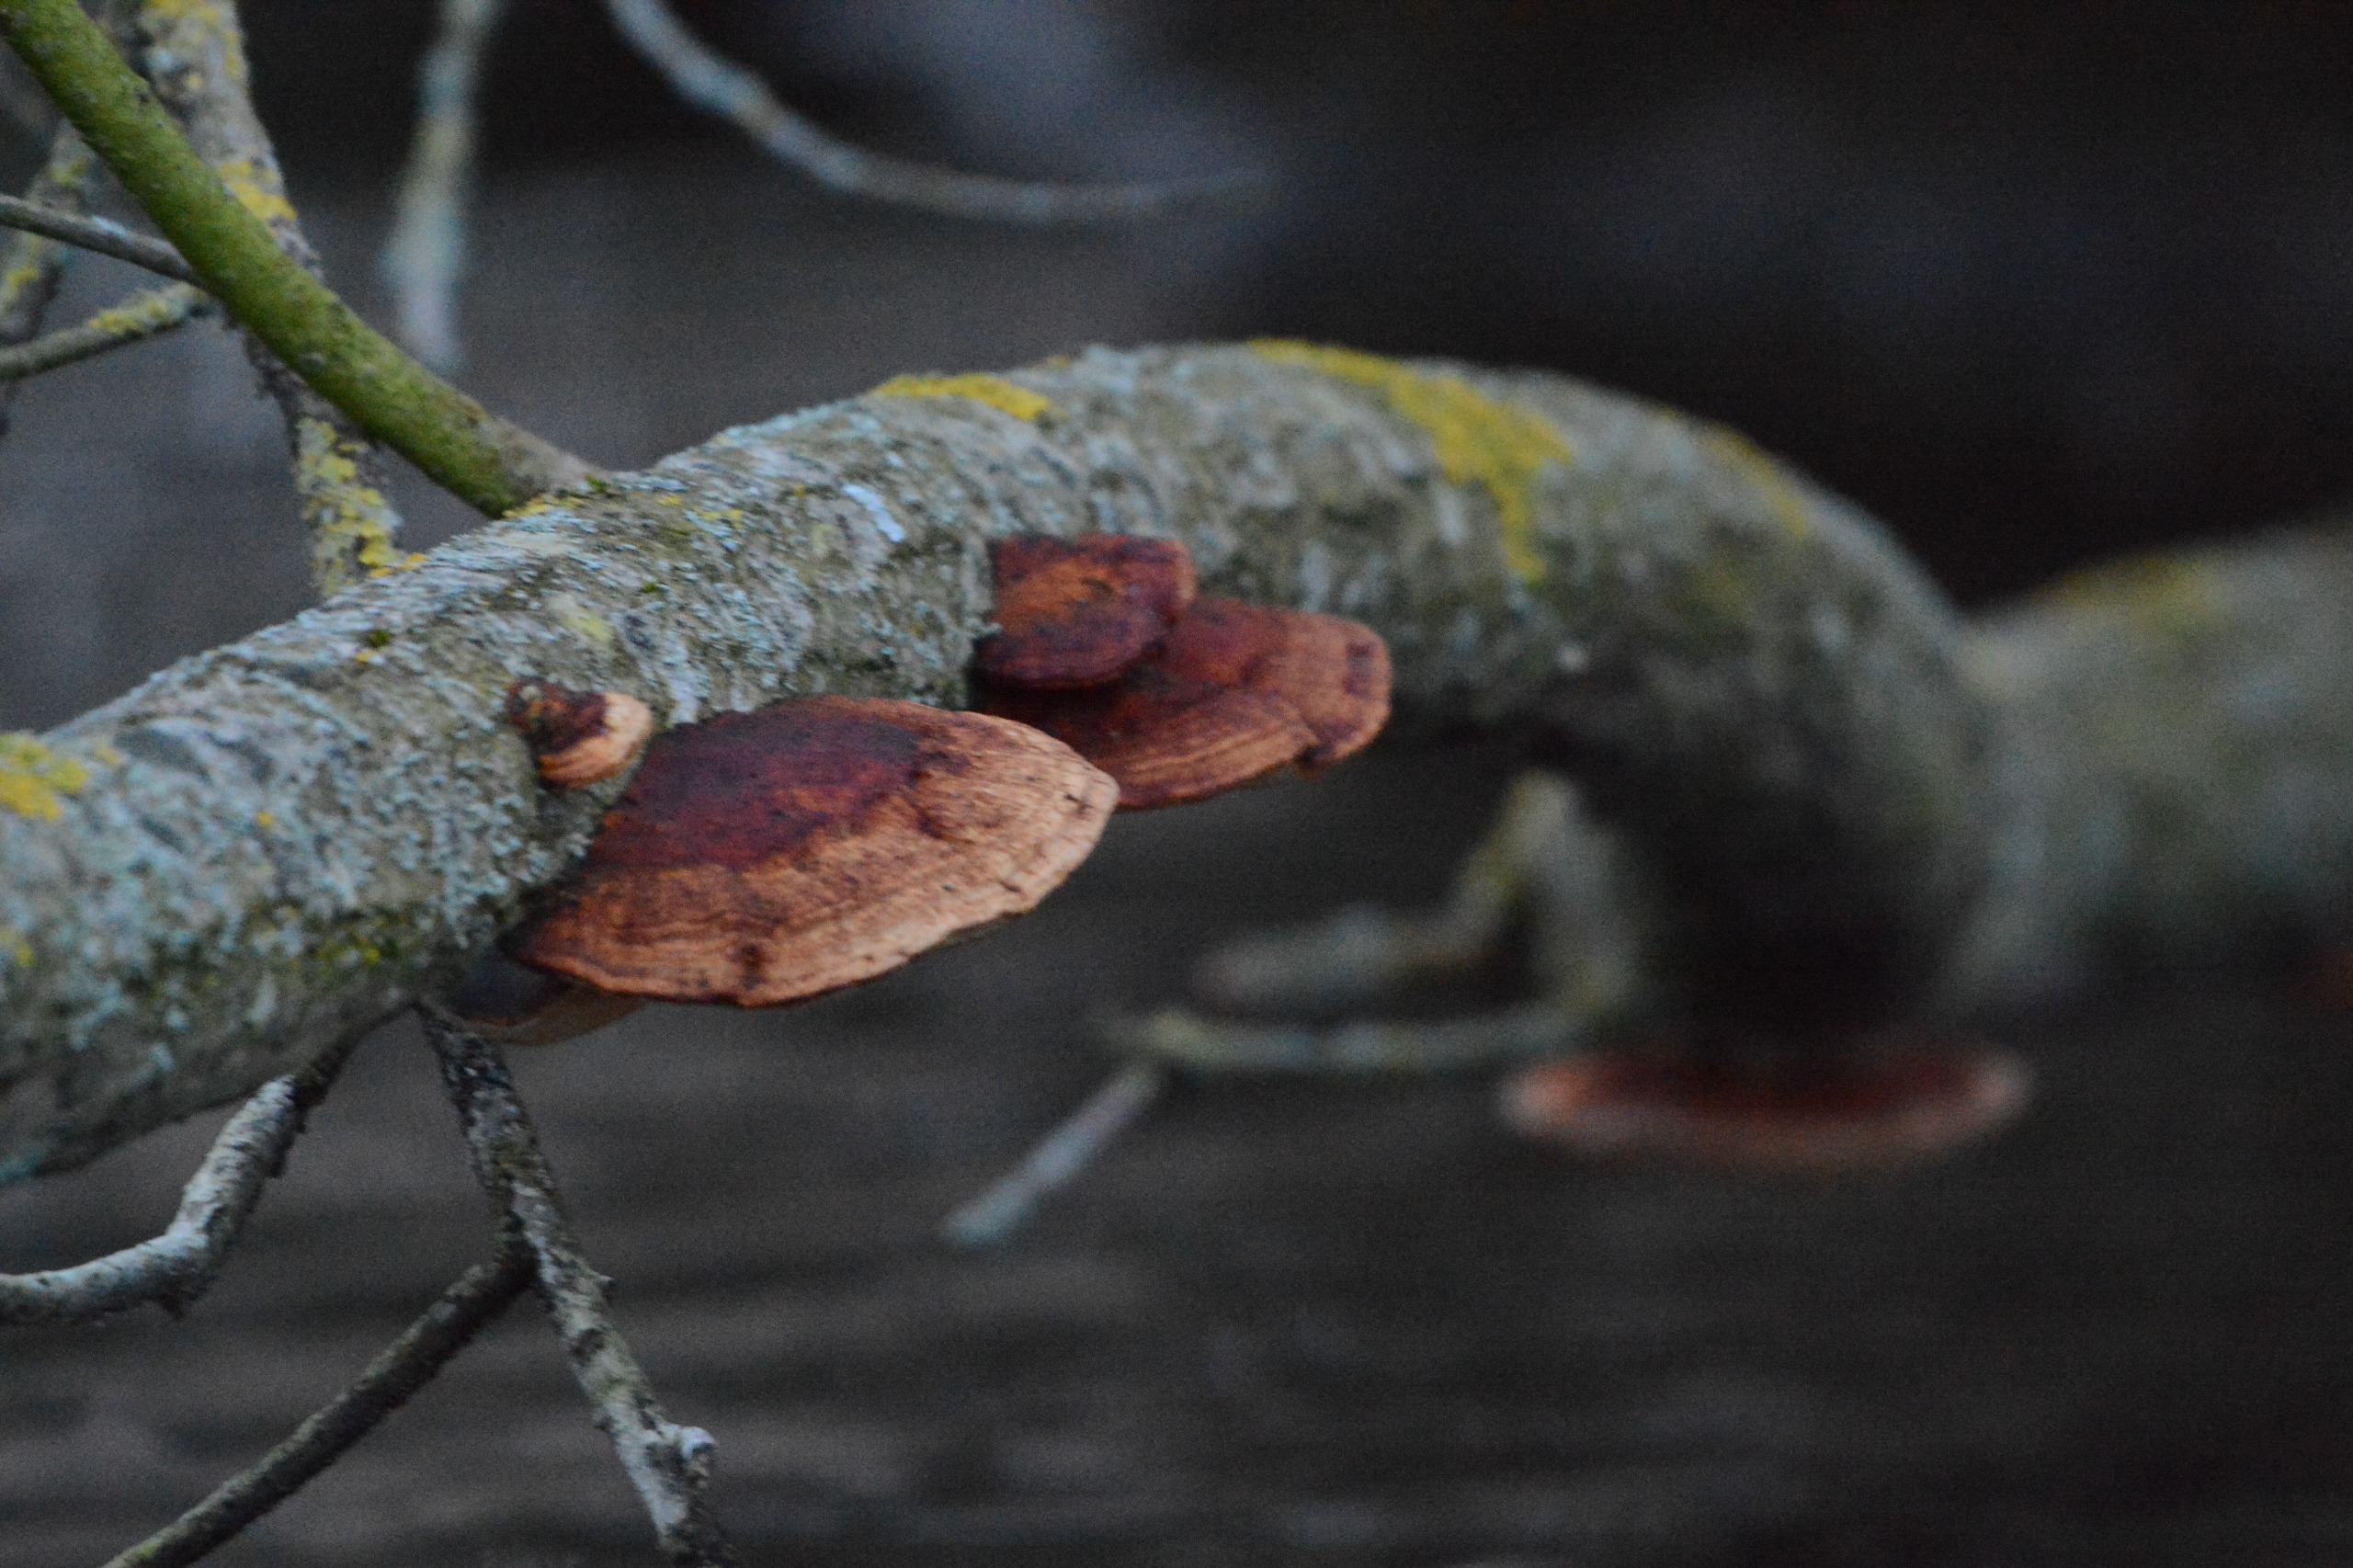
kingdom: Fungi
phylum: Basidiomycota
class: Agaricomycetes
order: Polyporales
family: Polyporaceae
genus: Daedaleopsis
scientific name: Daedaleopsis confragosa
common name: Rødmende læderporesvamp
